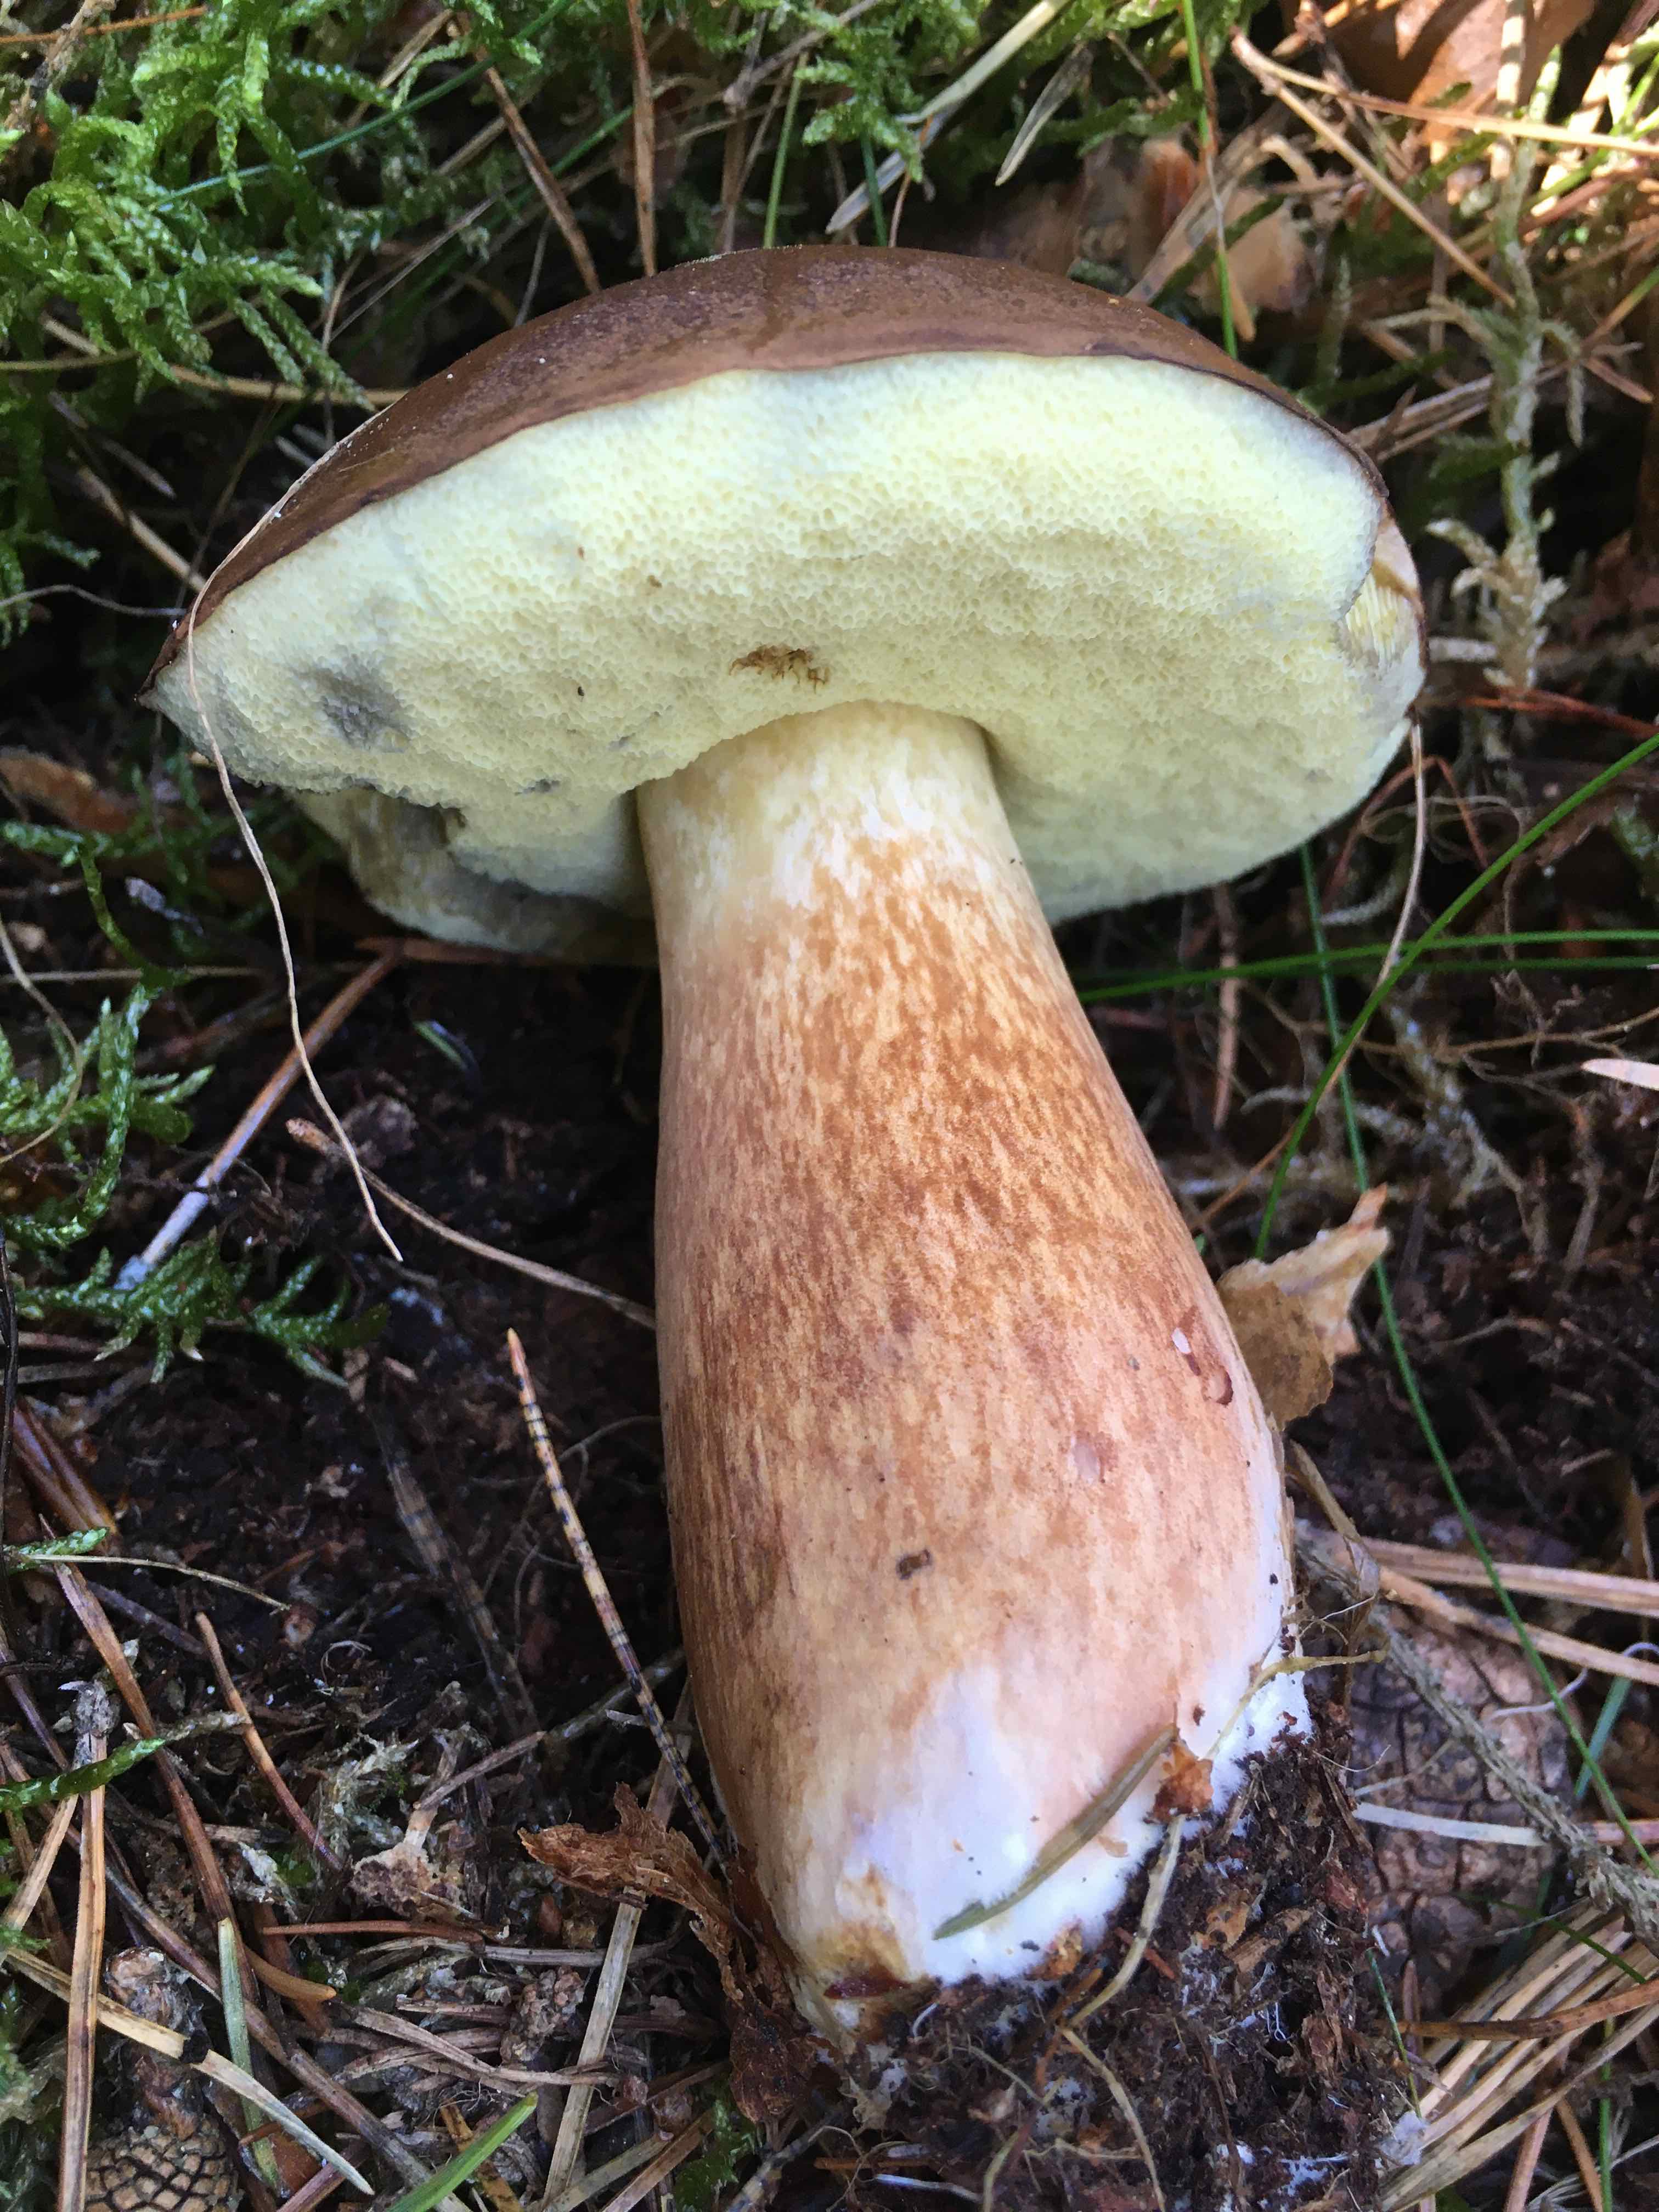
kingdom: Fungi
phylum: Basidiomycota
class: Agaricomycetes
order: Boletales
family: Boletaceae
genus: Imleria
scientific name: Imleria badia
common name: brunstokket rørhat
